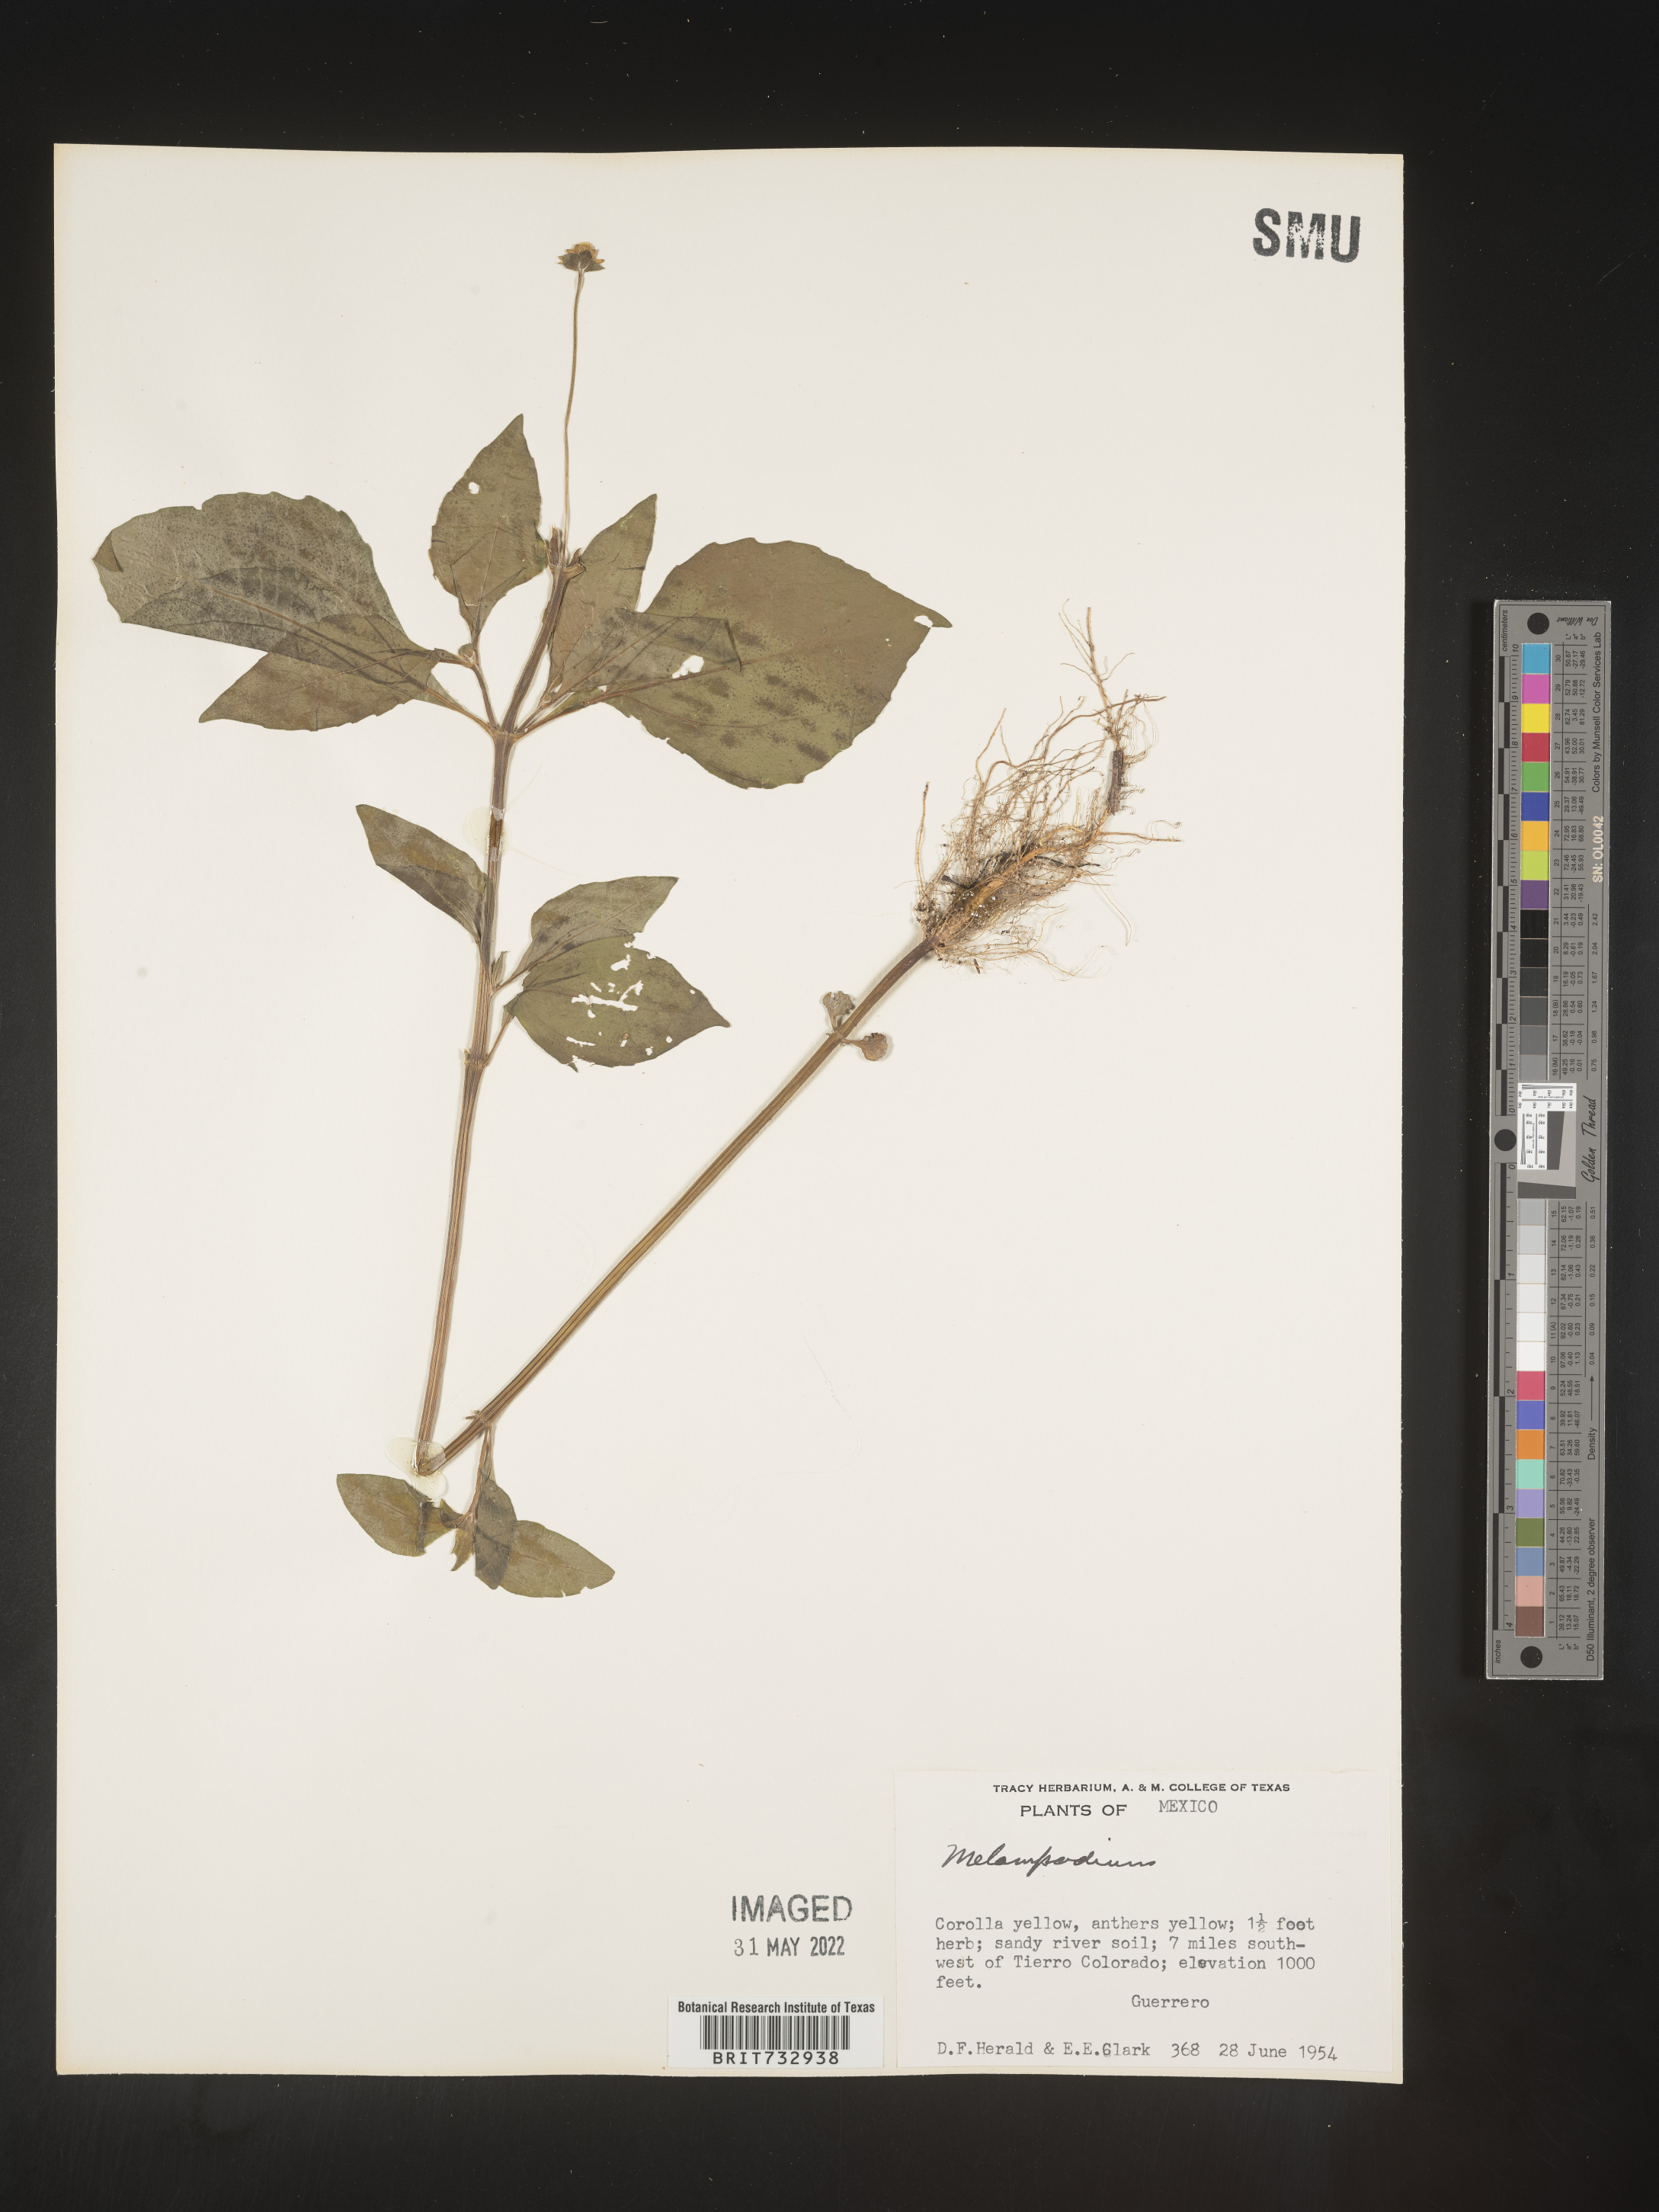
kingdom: Plantae
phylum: Tracheophyta
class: Magnoliopsida
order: Asterales
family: Asteraceae
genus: Melampodium
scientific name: Melampodium
